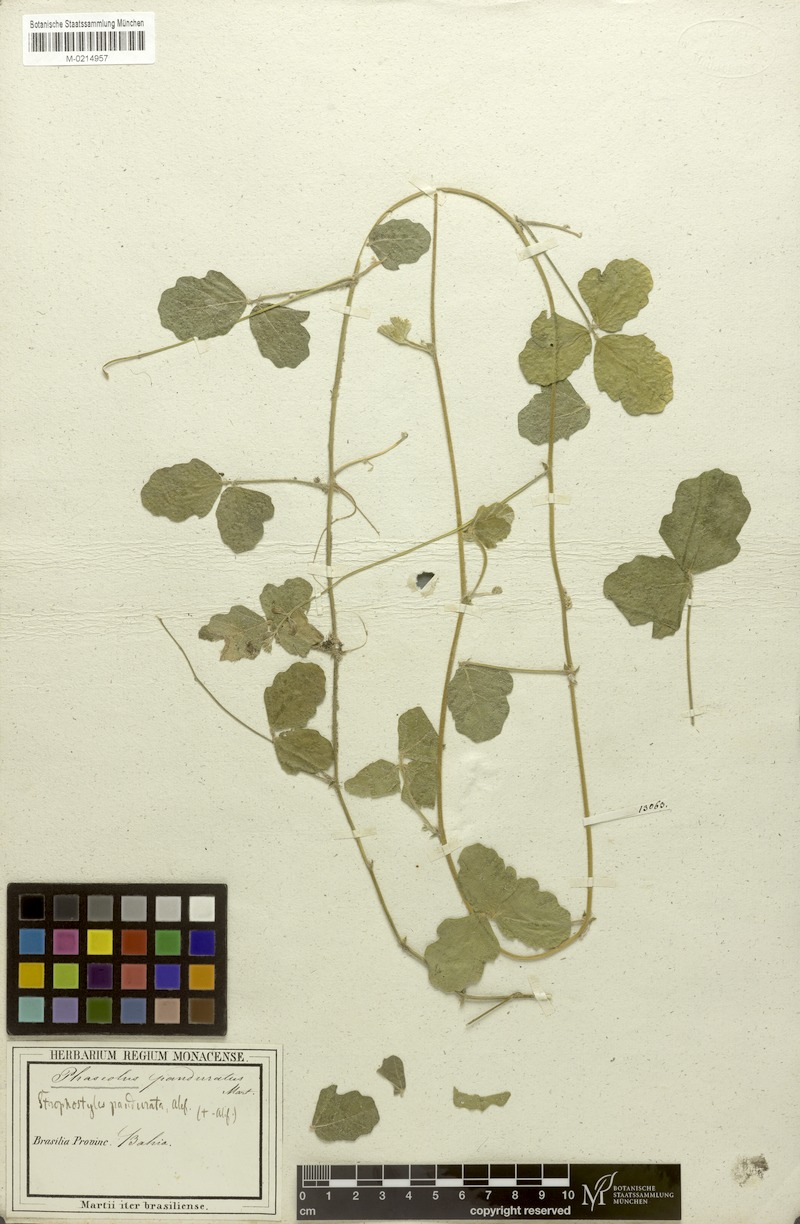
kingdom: Plantae
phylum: Tracheophyta
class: Magnoliopsida
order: Fabales
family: Fabaceae
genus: Macroptilium
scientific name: Macroptilium panduratum
